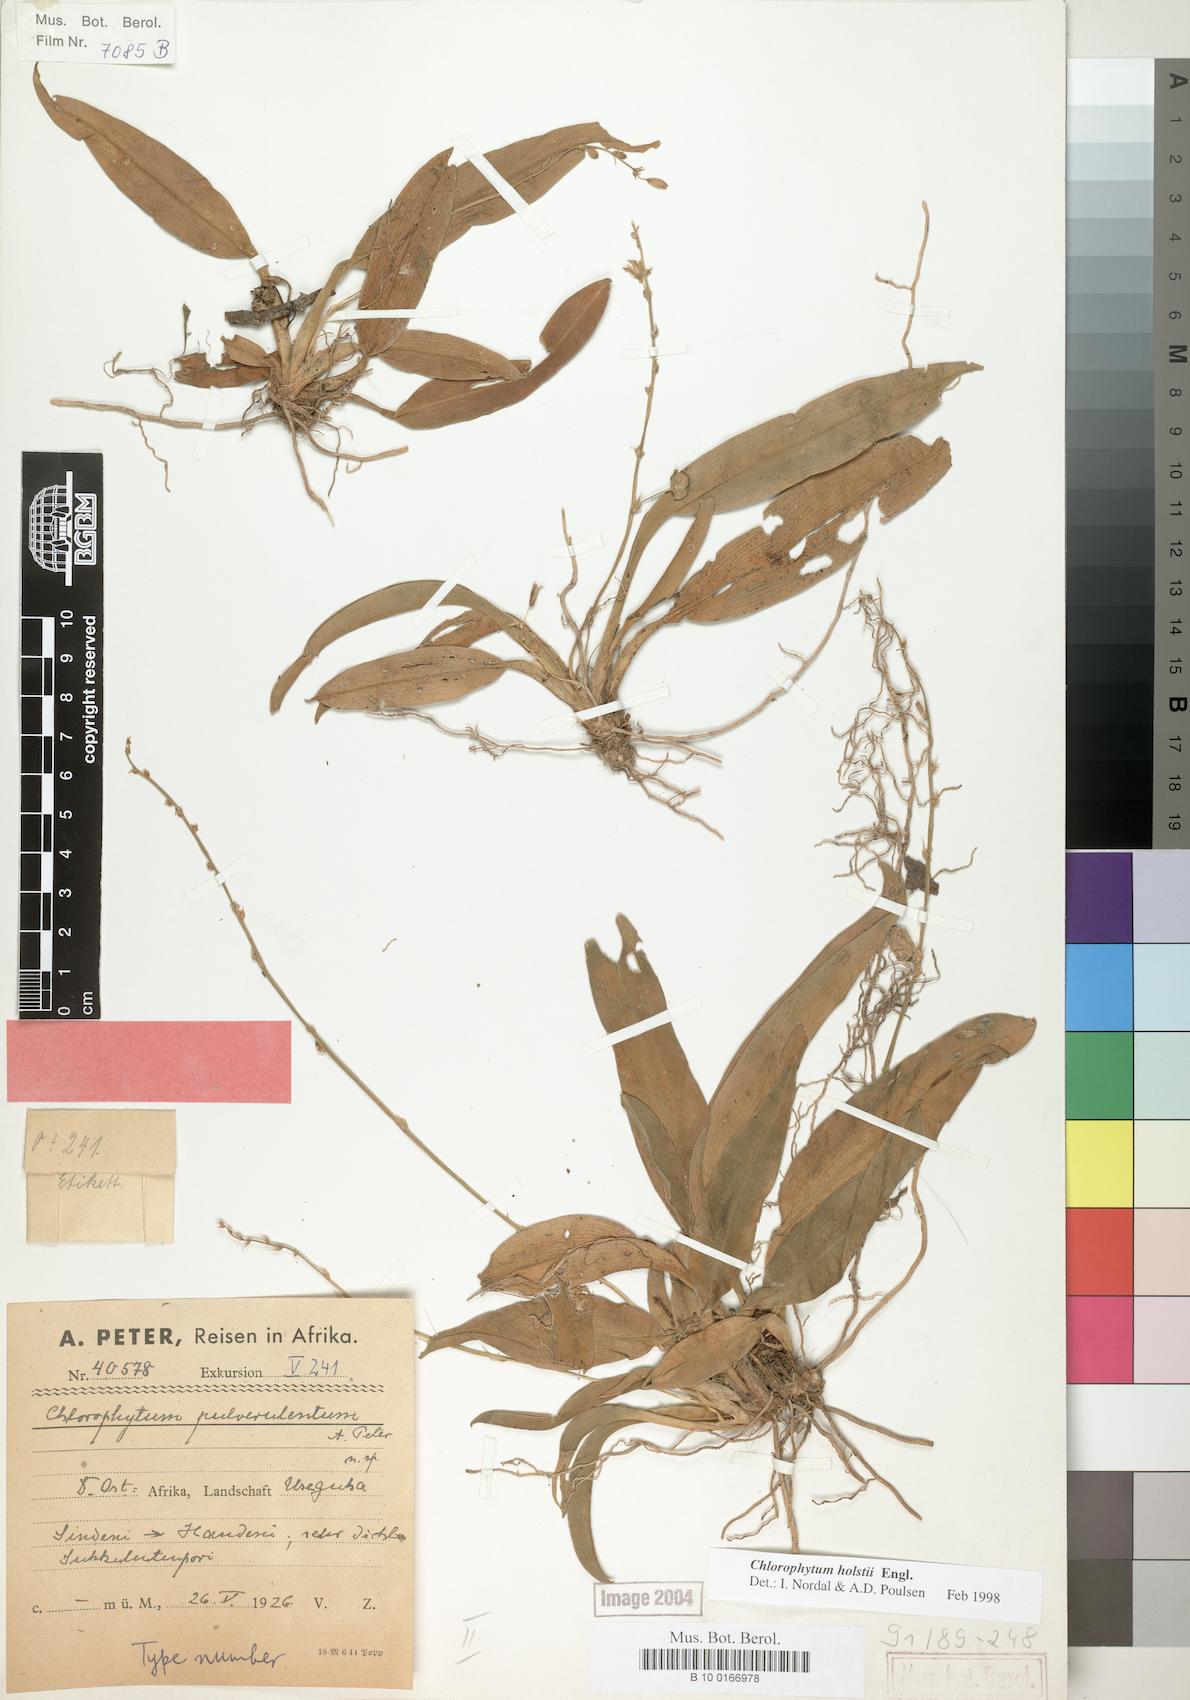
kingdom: Plantae
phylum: Tracheophyta
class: Liliopsida
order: Asparagales
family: Asparagaceae
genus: Chlorophytum
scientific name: Chlorophytum holstii
